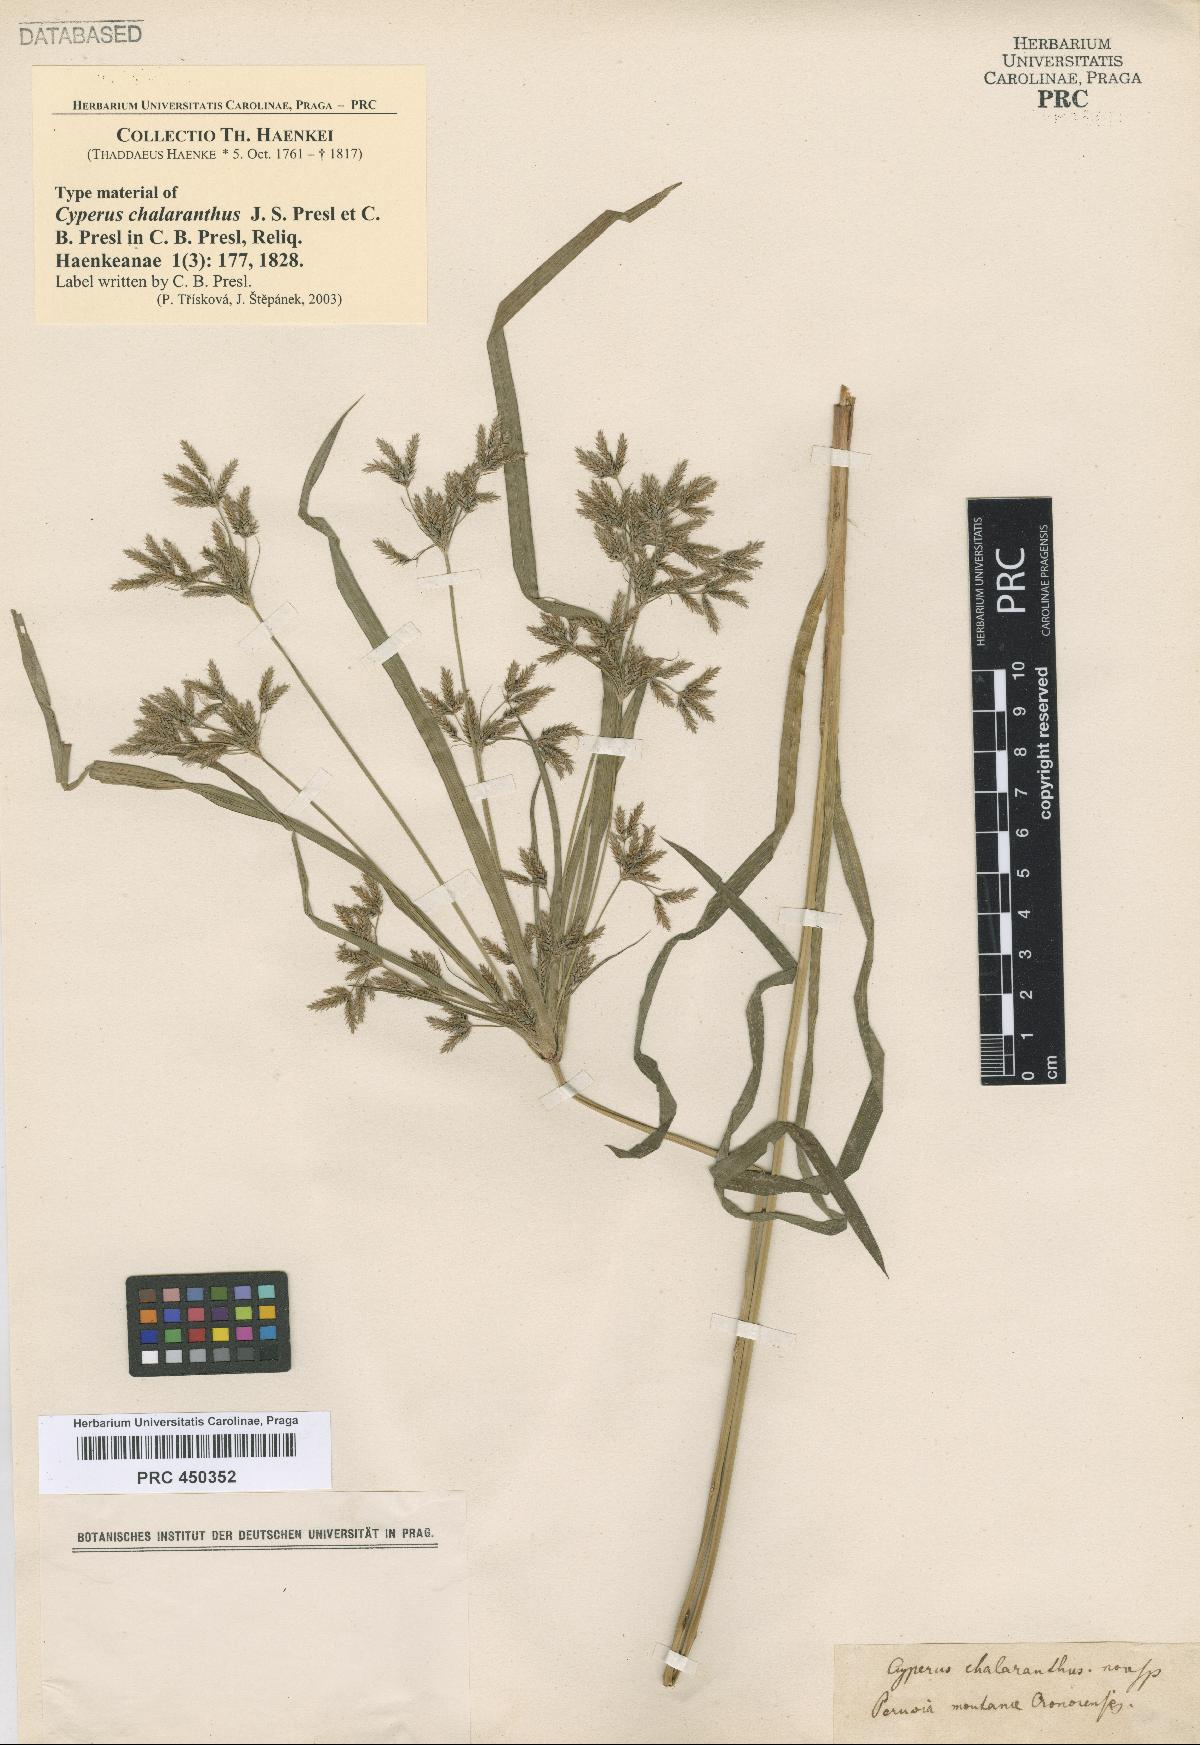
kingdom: Plantae
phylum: Tracheophyta
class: Liliopsida
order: Poales
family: Cyperaceae
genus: Cyperus
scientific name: Cyperus chalaranthus
